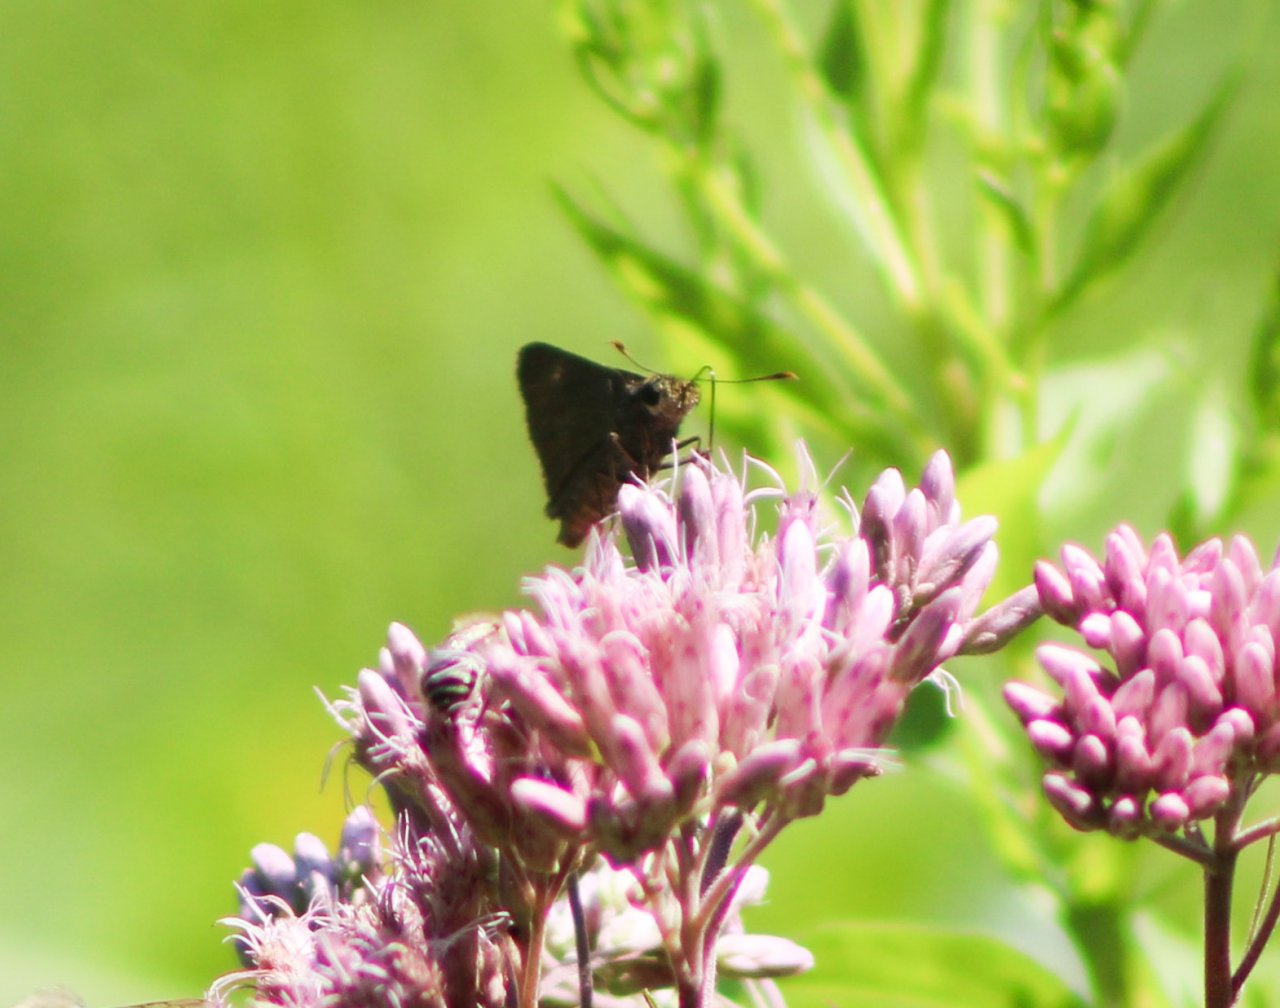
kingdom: Animalia
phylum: Arthropoda
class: Insecta
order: Lepidoptera
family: Hesperiidae
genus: Euphyes
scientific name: Euphyes vestris
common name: Dun Skipper
